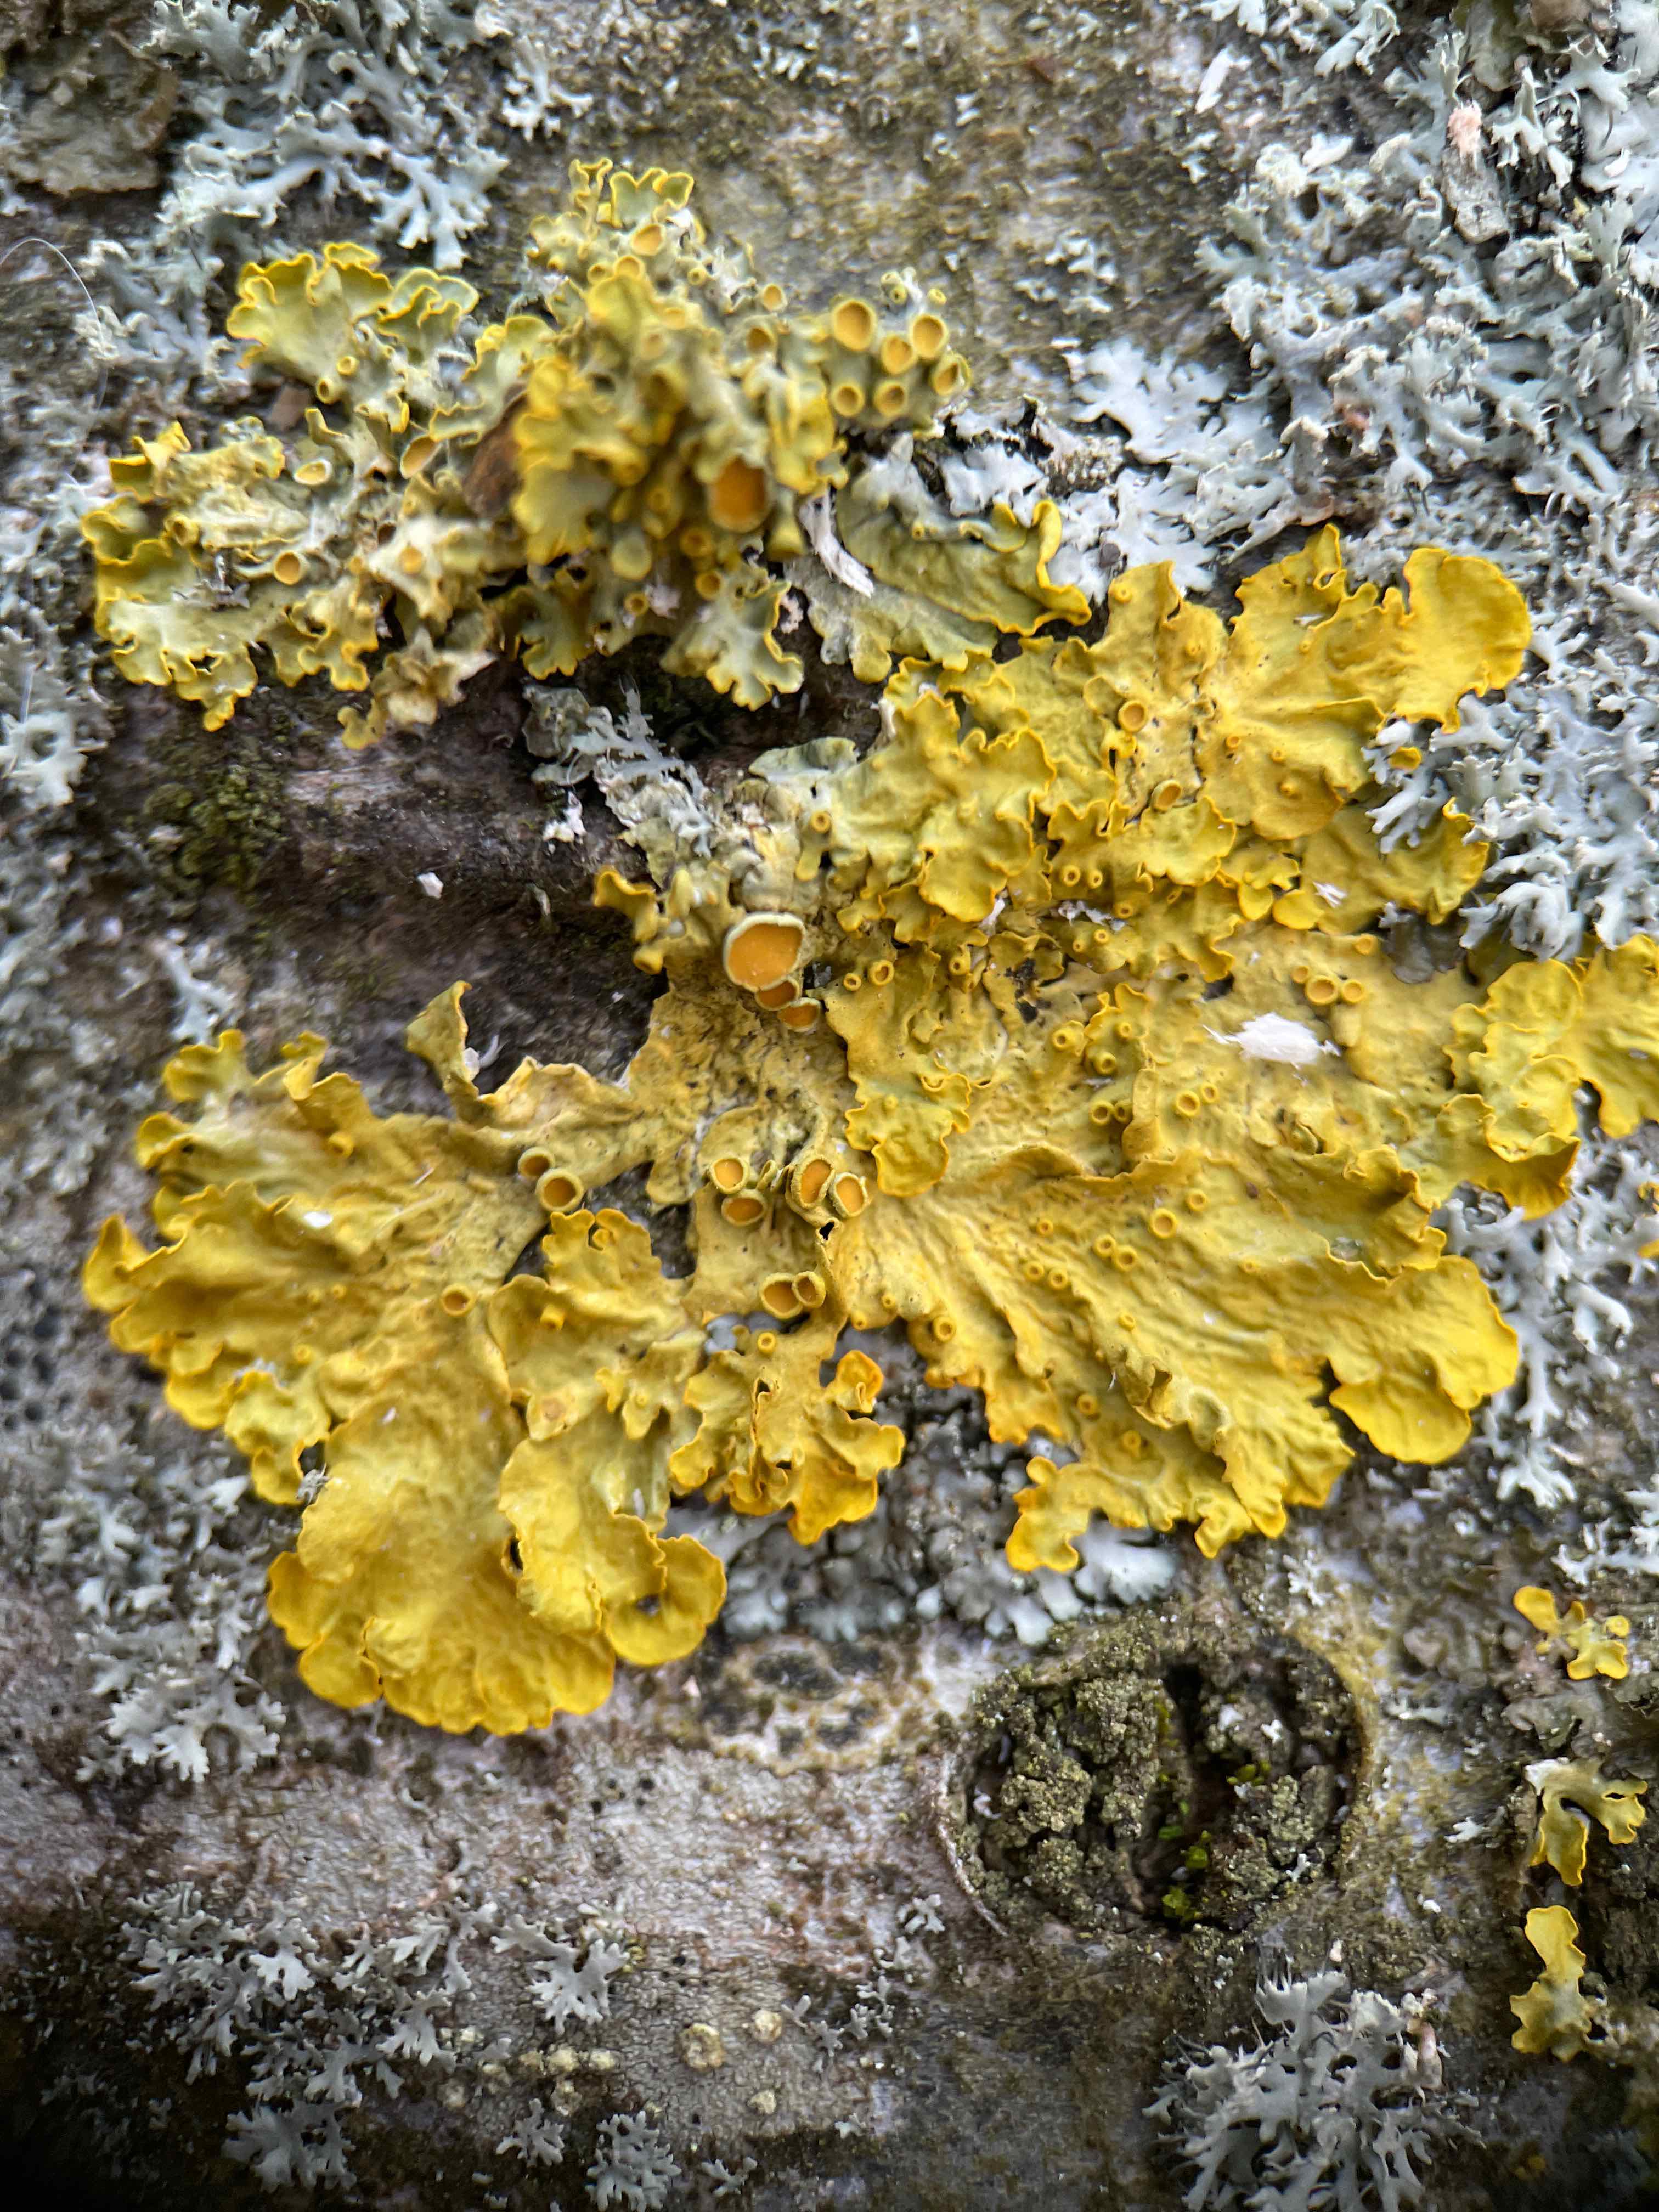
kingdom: Fungi
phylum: Ascomycota
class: Lecanoromycetes
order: Teloschistales
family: Teloschistaceae
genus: Xanthoria
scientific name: Xanthoria parietina
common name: almindelig væggelav
